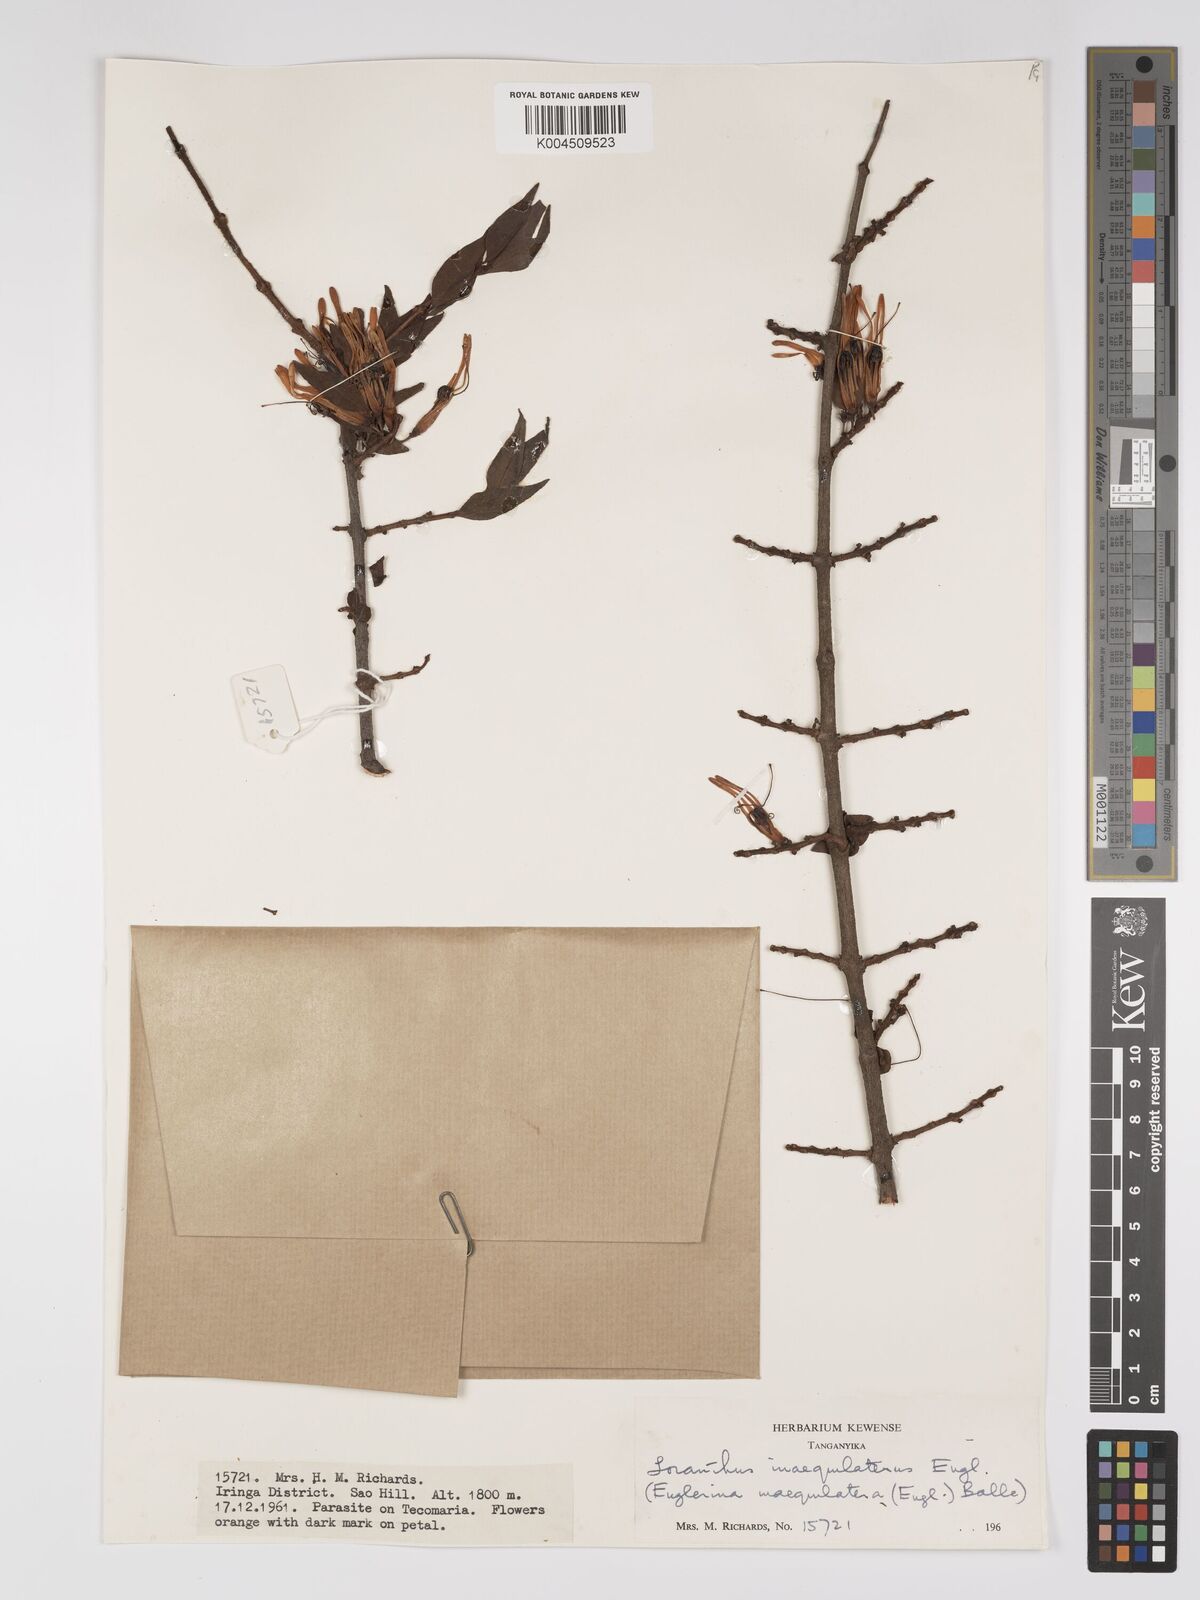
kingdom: Plantae
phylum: Tracheophyta
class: Magnoliopsida
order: Santalales
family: Loranthaceae
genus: Englerina
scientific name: Englerina inaequilatera
